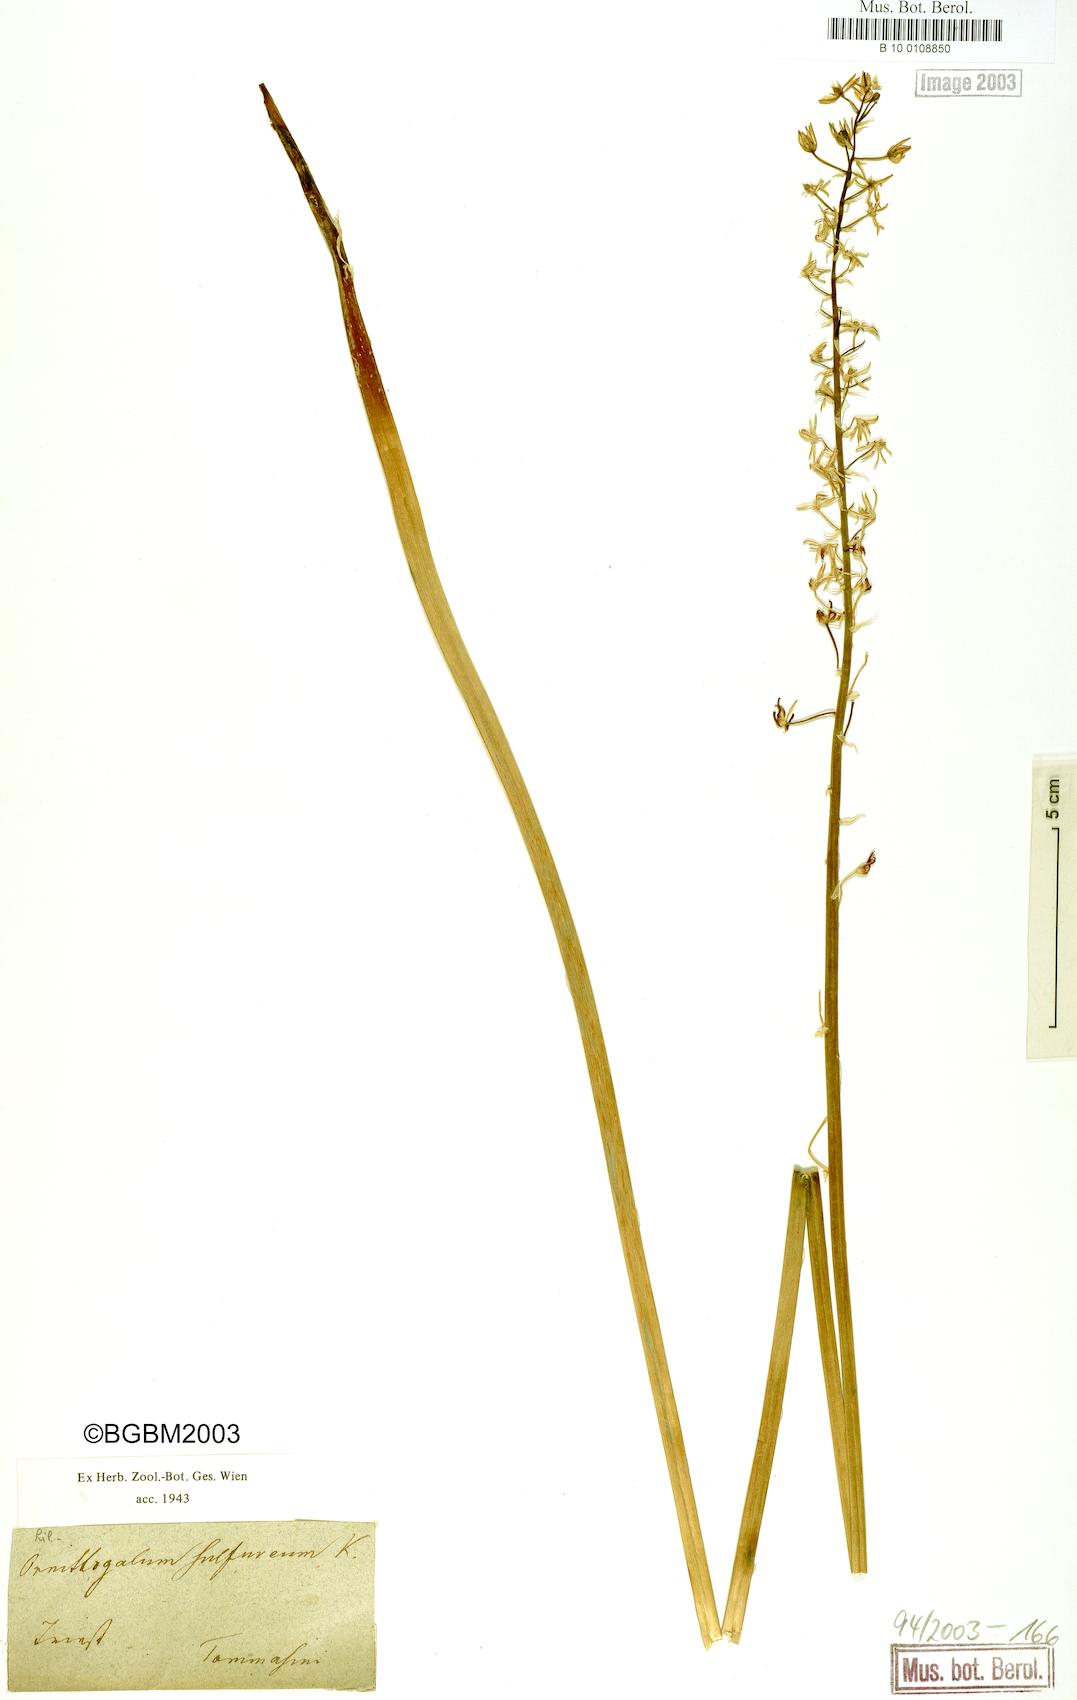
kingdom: Plantae
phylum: Tracheophyta
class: Liliopsida
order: Asparagales
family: Asparagaceae
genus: Ornithogalum
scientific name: Ornithogalum pyrenaicum
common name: Spiked star-of-bethlehem
